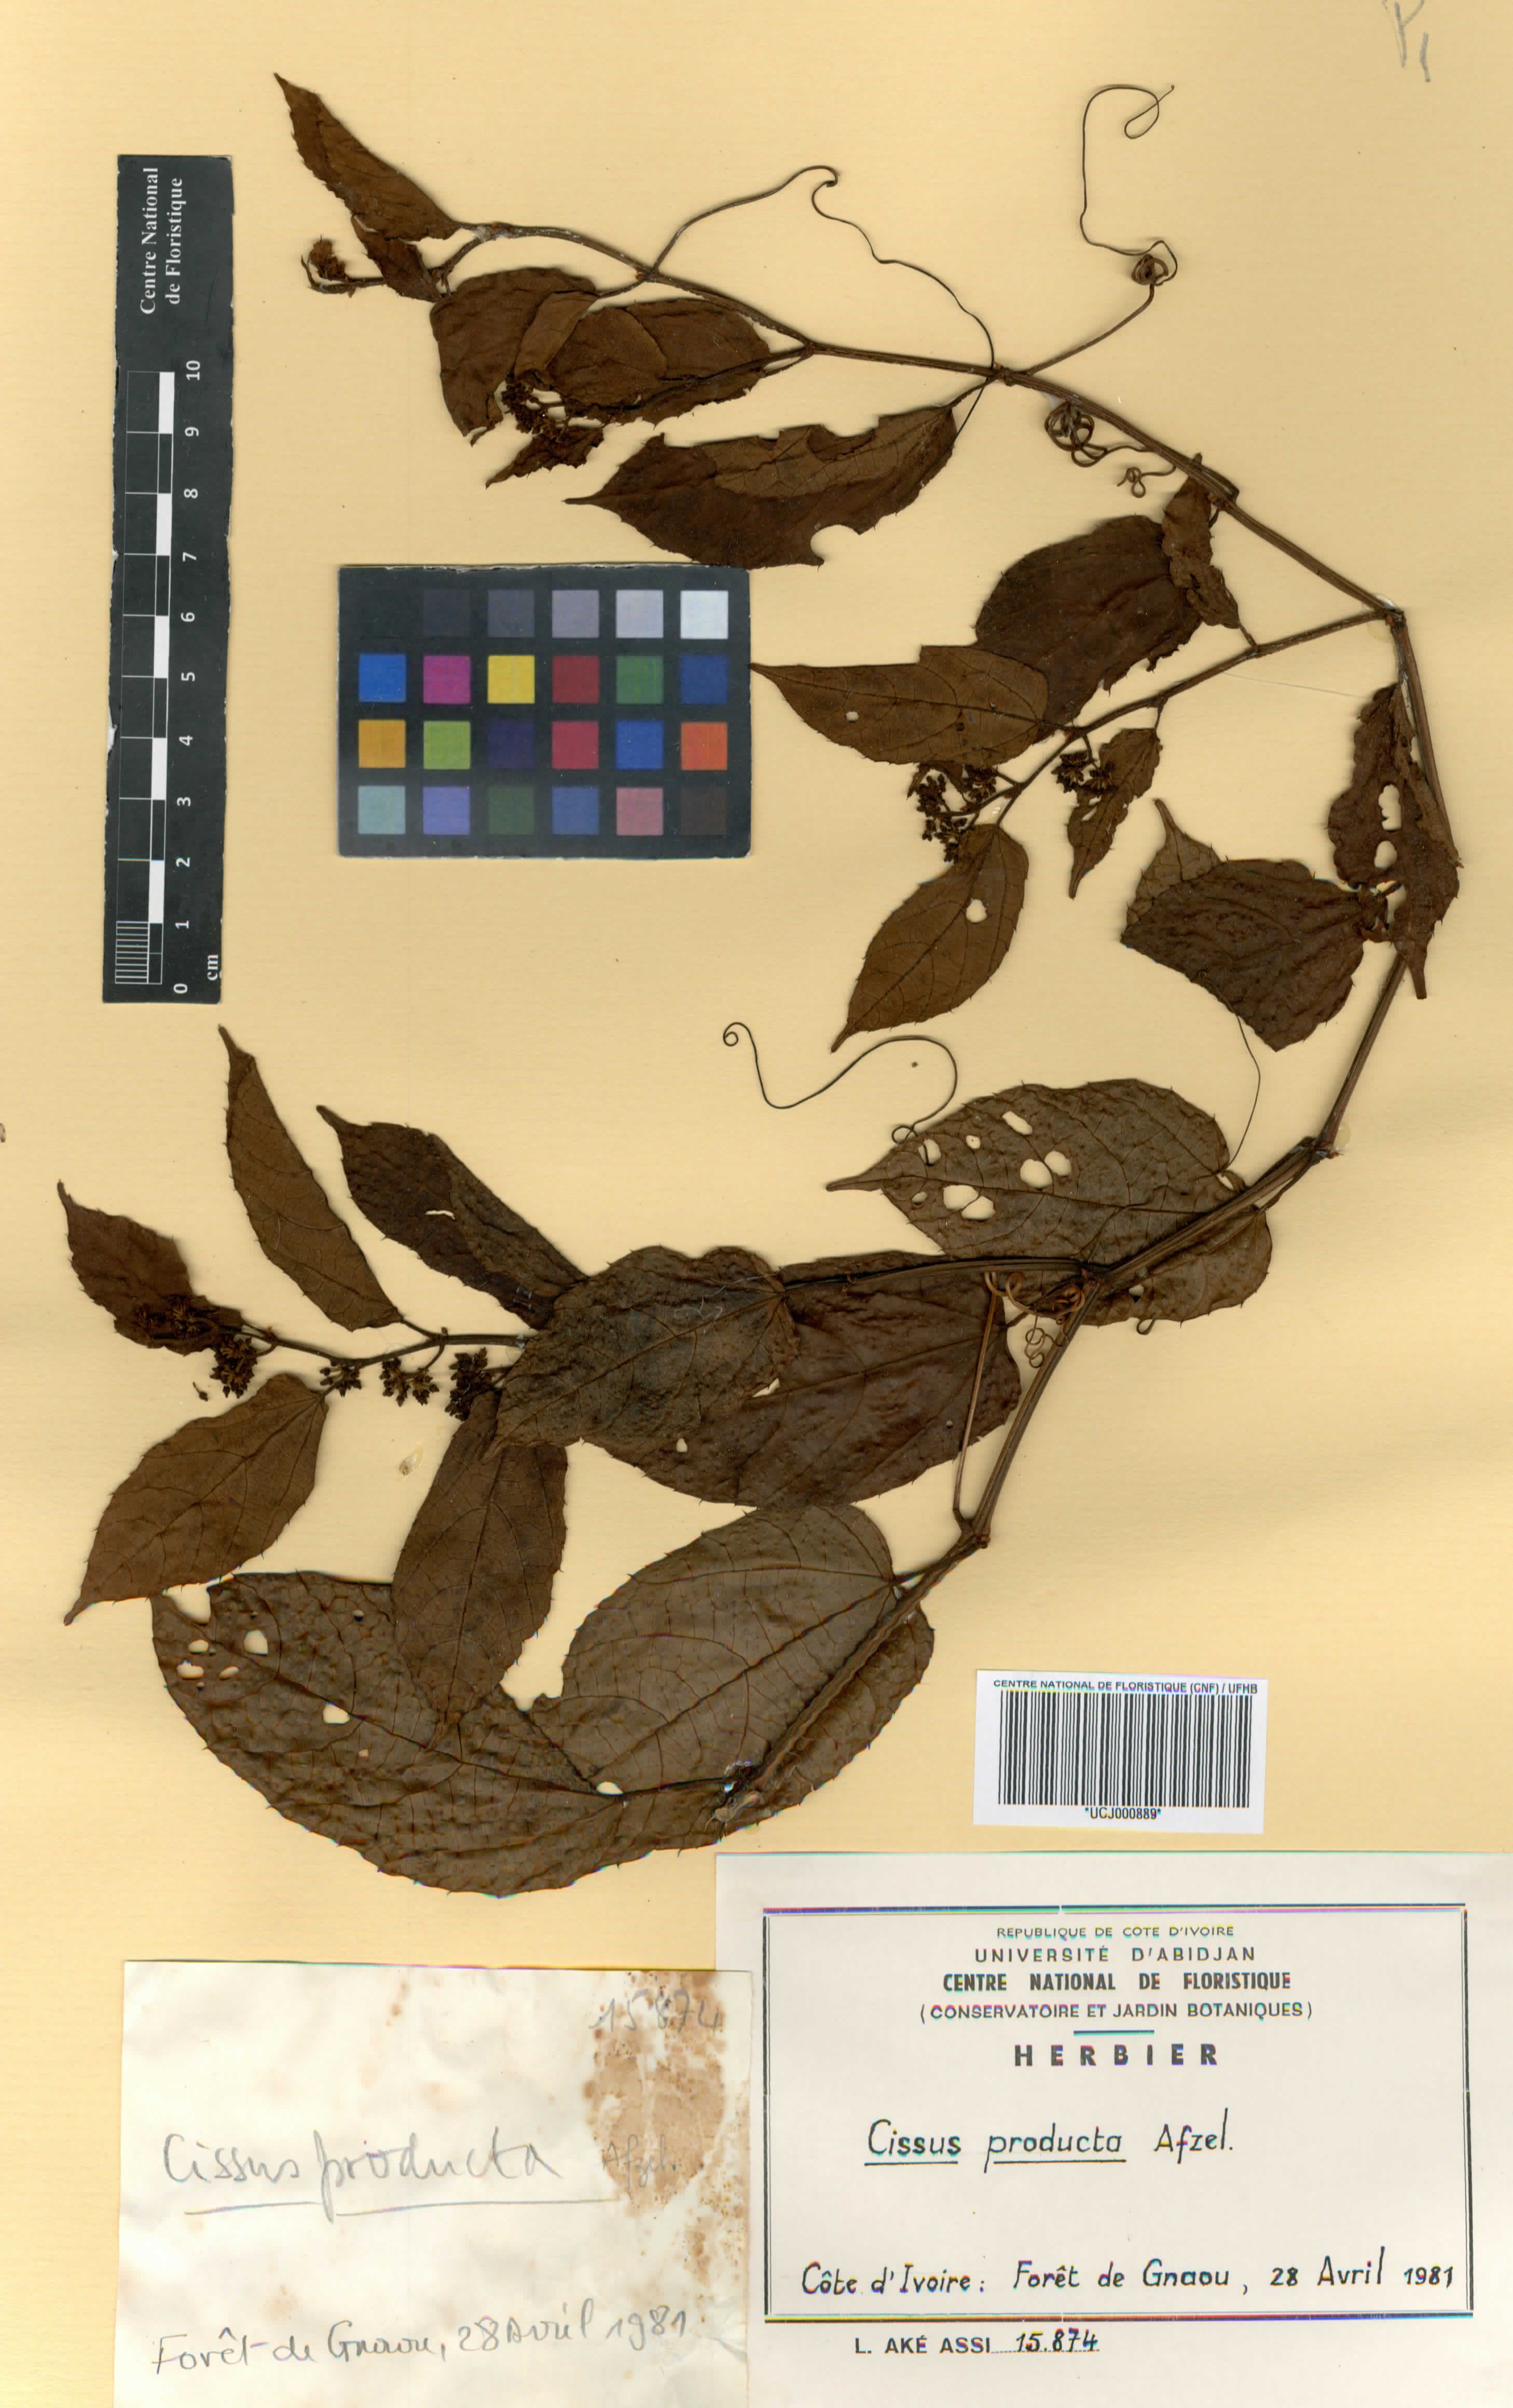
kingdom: Plantae
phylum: Tracheophyta
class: Magnoliopsida
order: Vitales
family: Vitaceae
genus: Cissus
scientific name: Cissus producta
